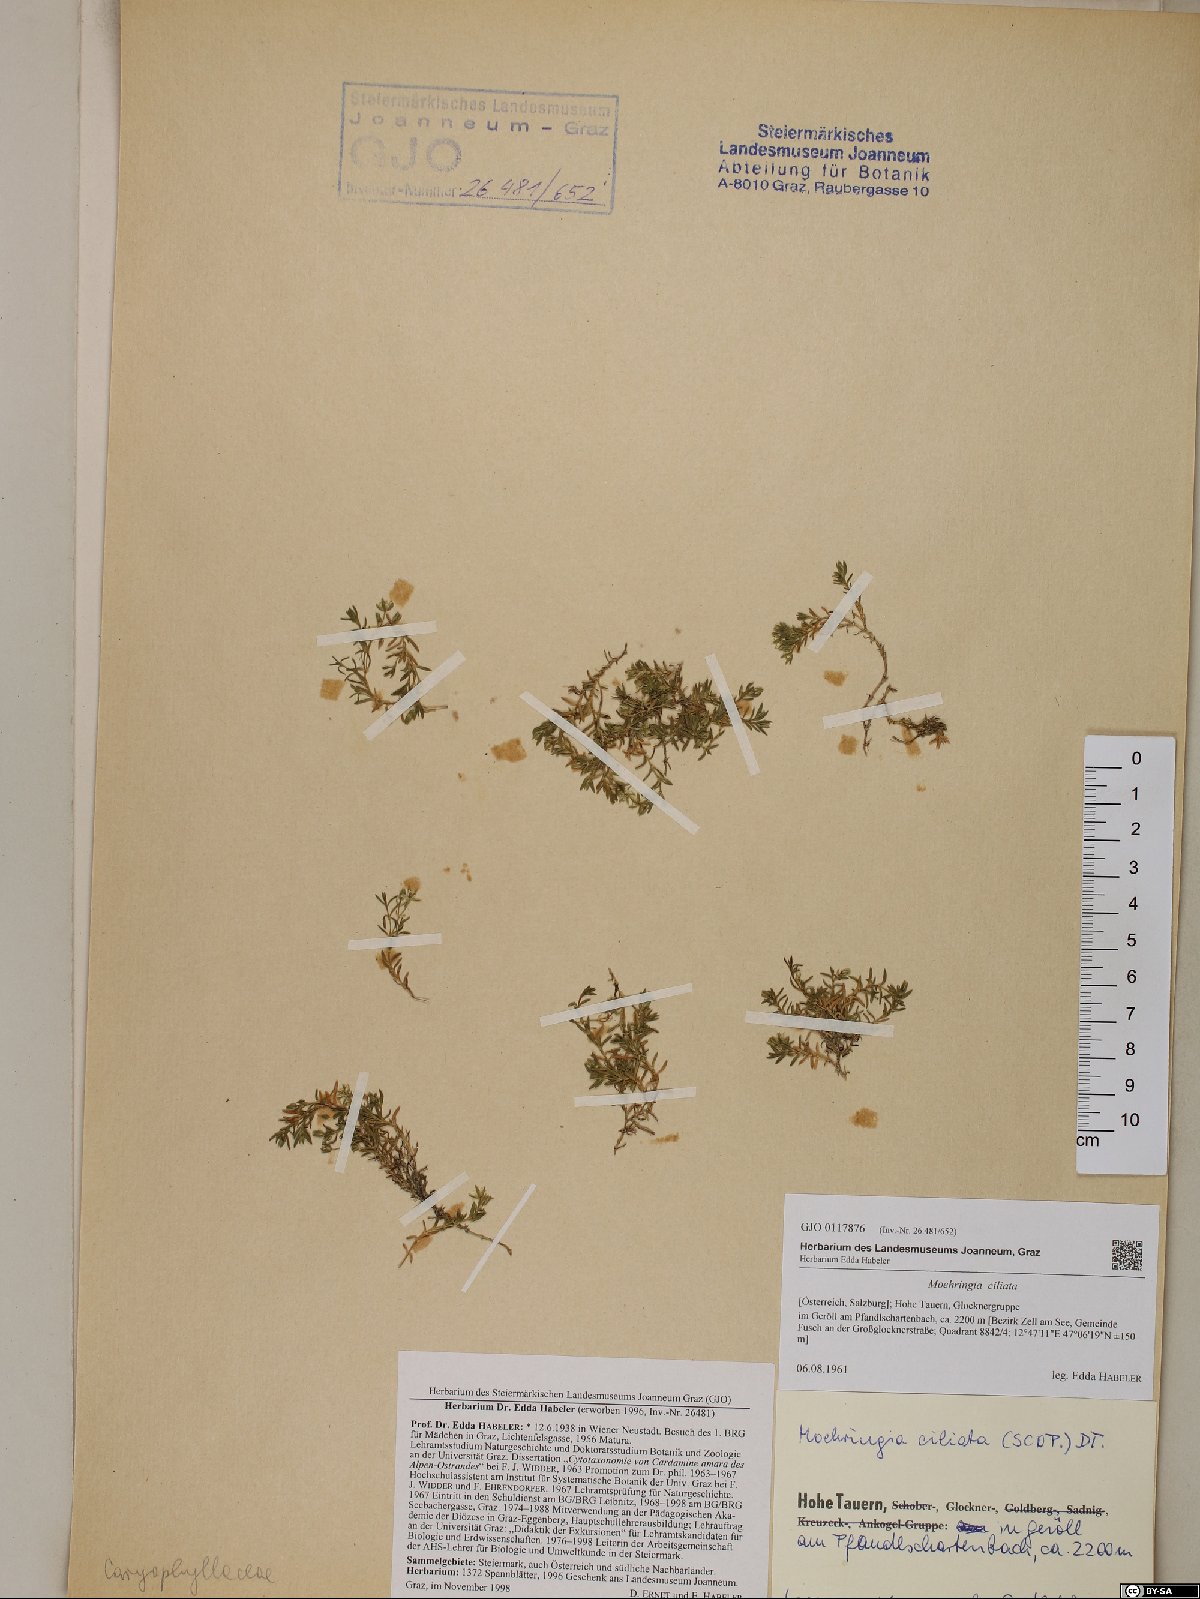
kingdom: Plantae
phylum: Tracheophyta
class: Magnoliopsida
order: Caryophyllales
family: Caryophyllaceae
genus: Moehringia
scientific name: Moehringia ciliata
